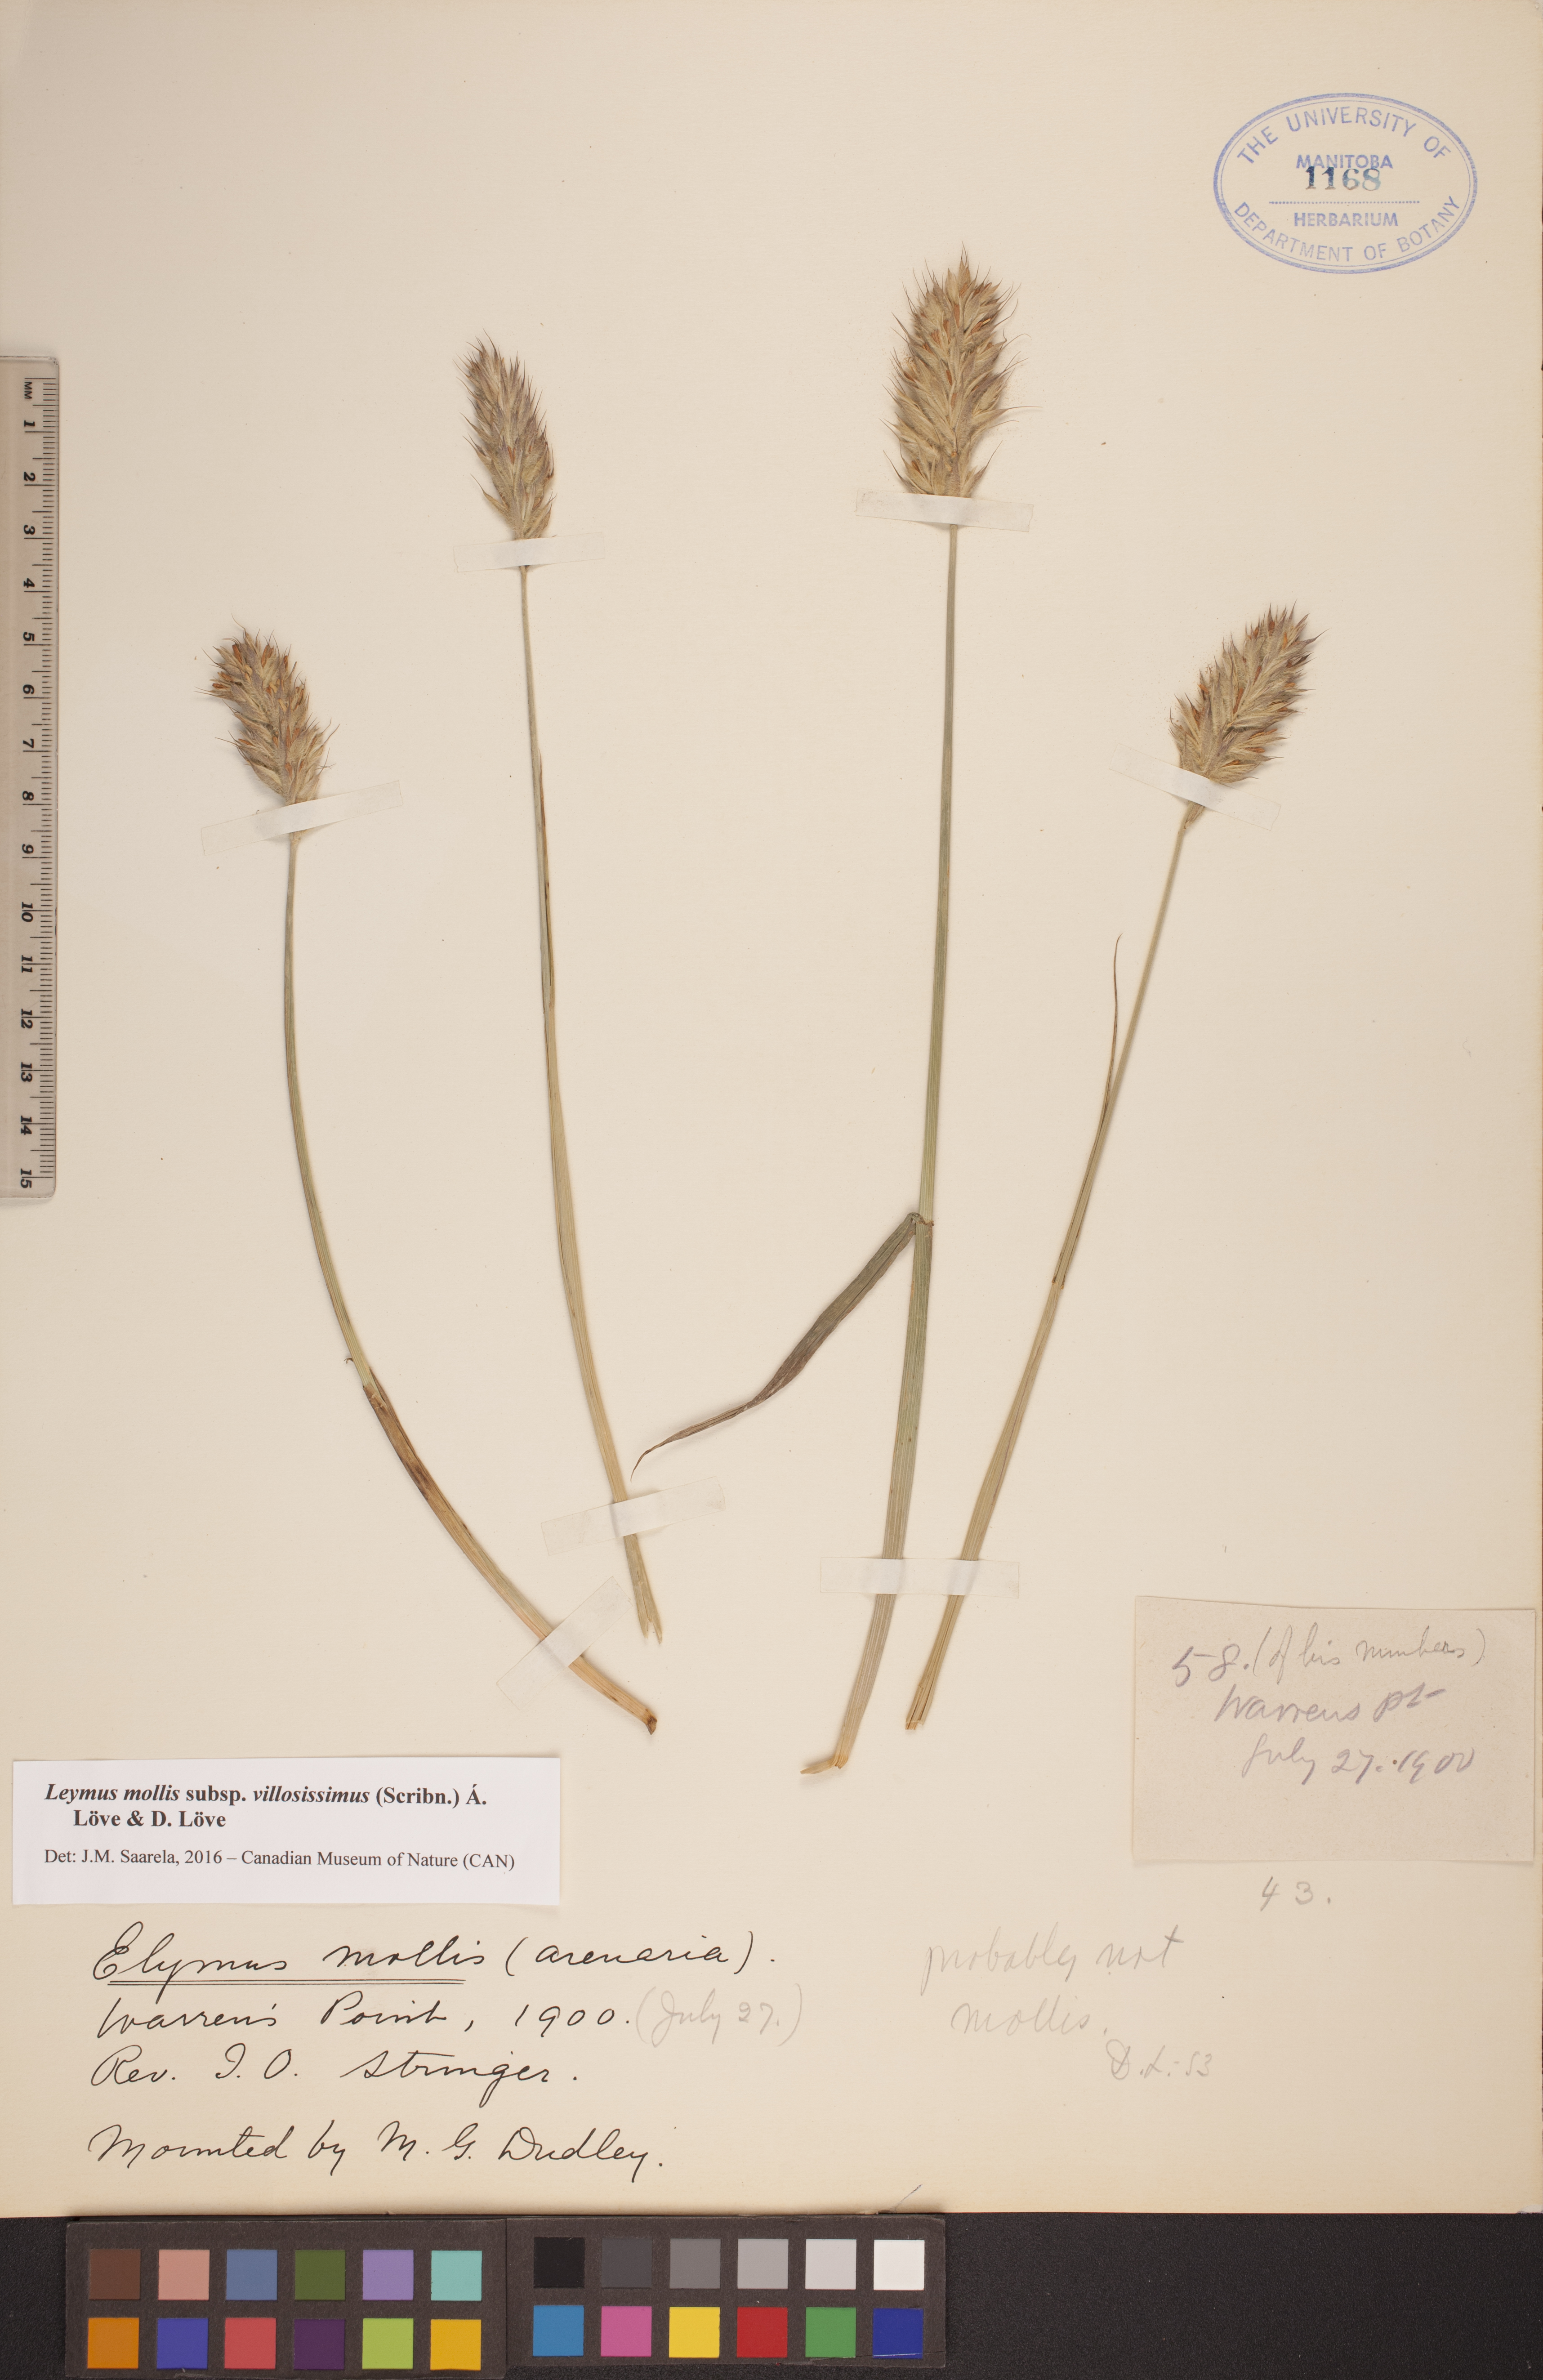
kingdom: Plantae
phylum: Tracheophyta
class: Liliopsida
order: Poales
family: Poaceae
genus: Leymus
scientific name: Leymus villosissimus
